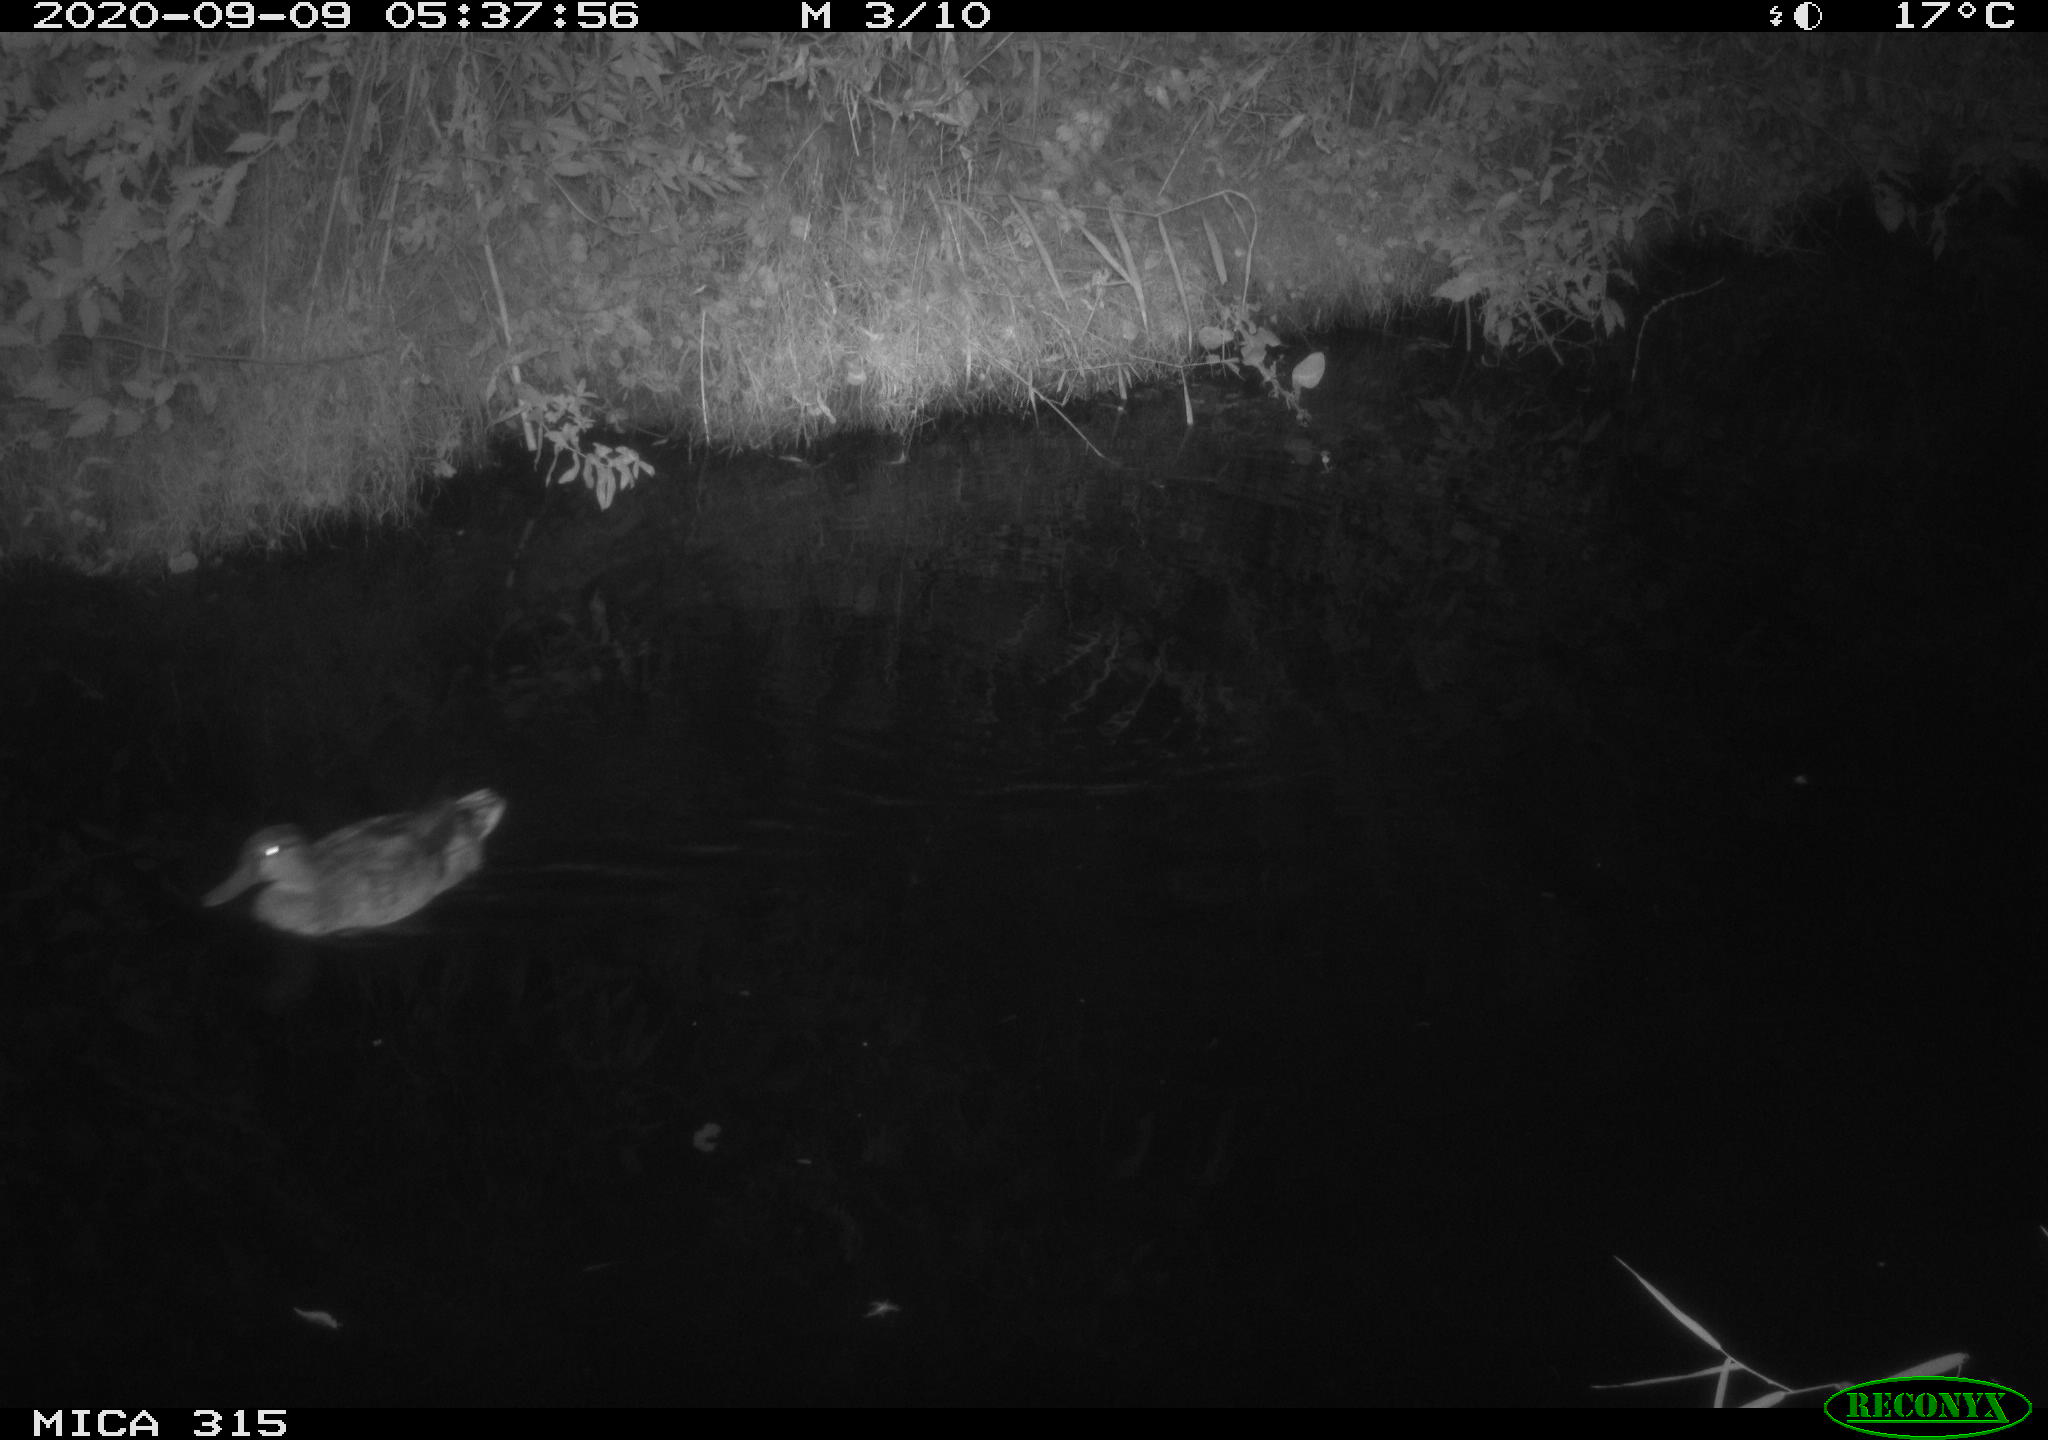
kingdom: Animalia
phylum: Chordata
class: Aves
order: Anseriformes
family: Anatidae
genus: Anas
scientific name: Anas platyrhynchos
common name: Mallard
